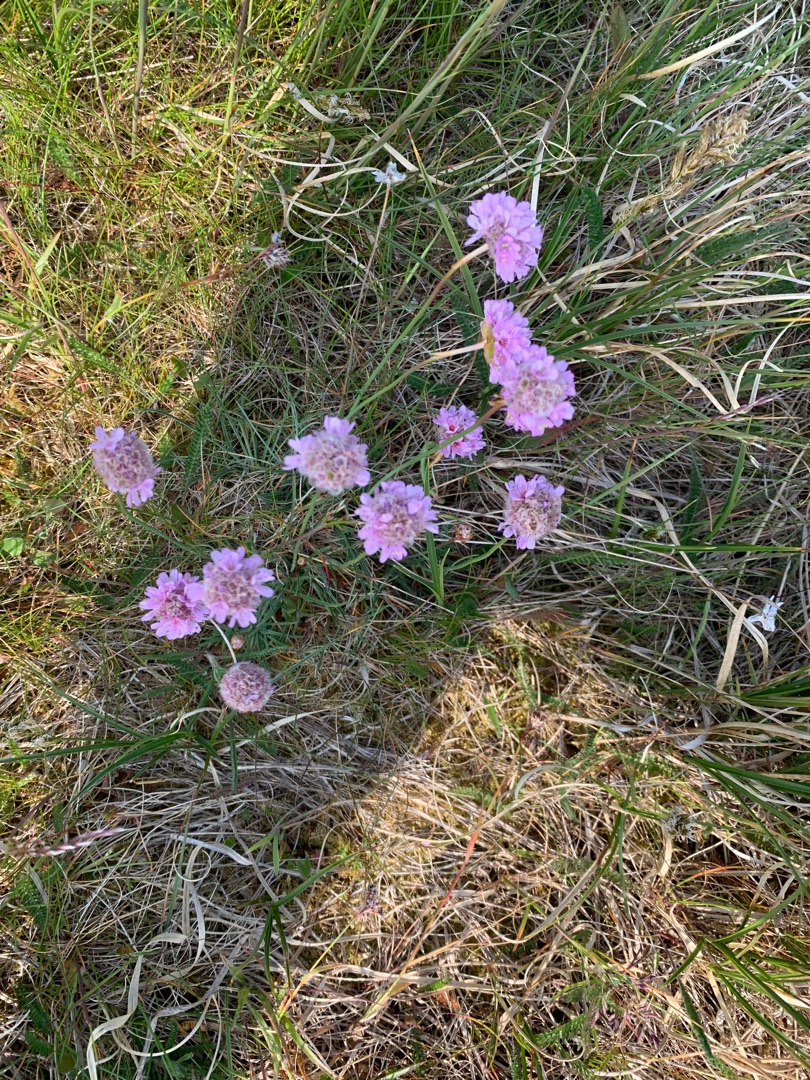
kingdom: Plantae
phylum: Tracheophyta
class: Magnoliopsida
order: Caryophyllales
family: Plumbaginaceae
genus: Armeria
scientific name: Armeria maritima
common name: Engelskgræs
